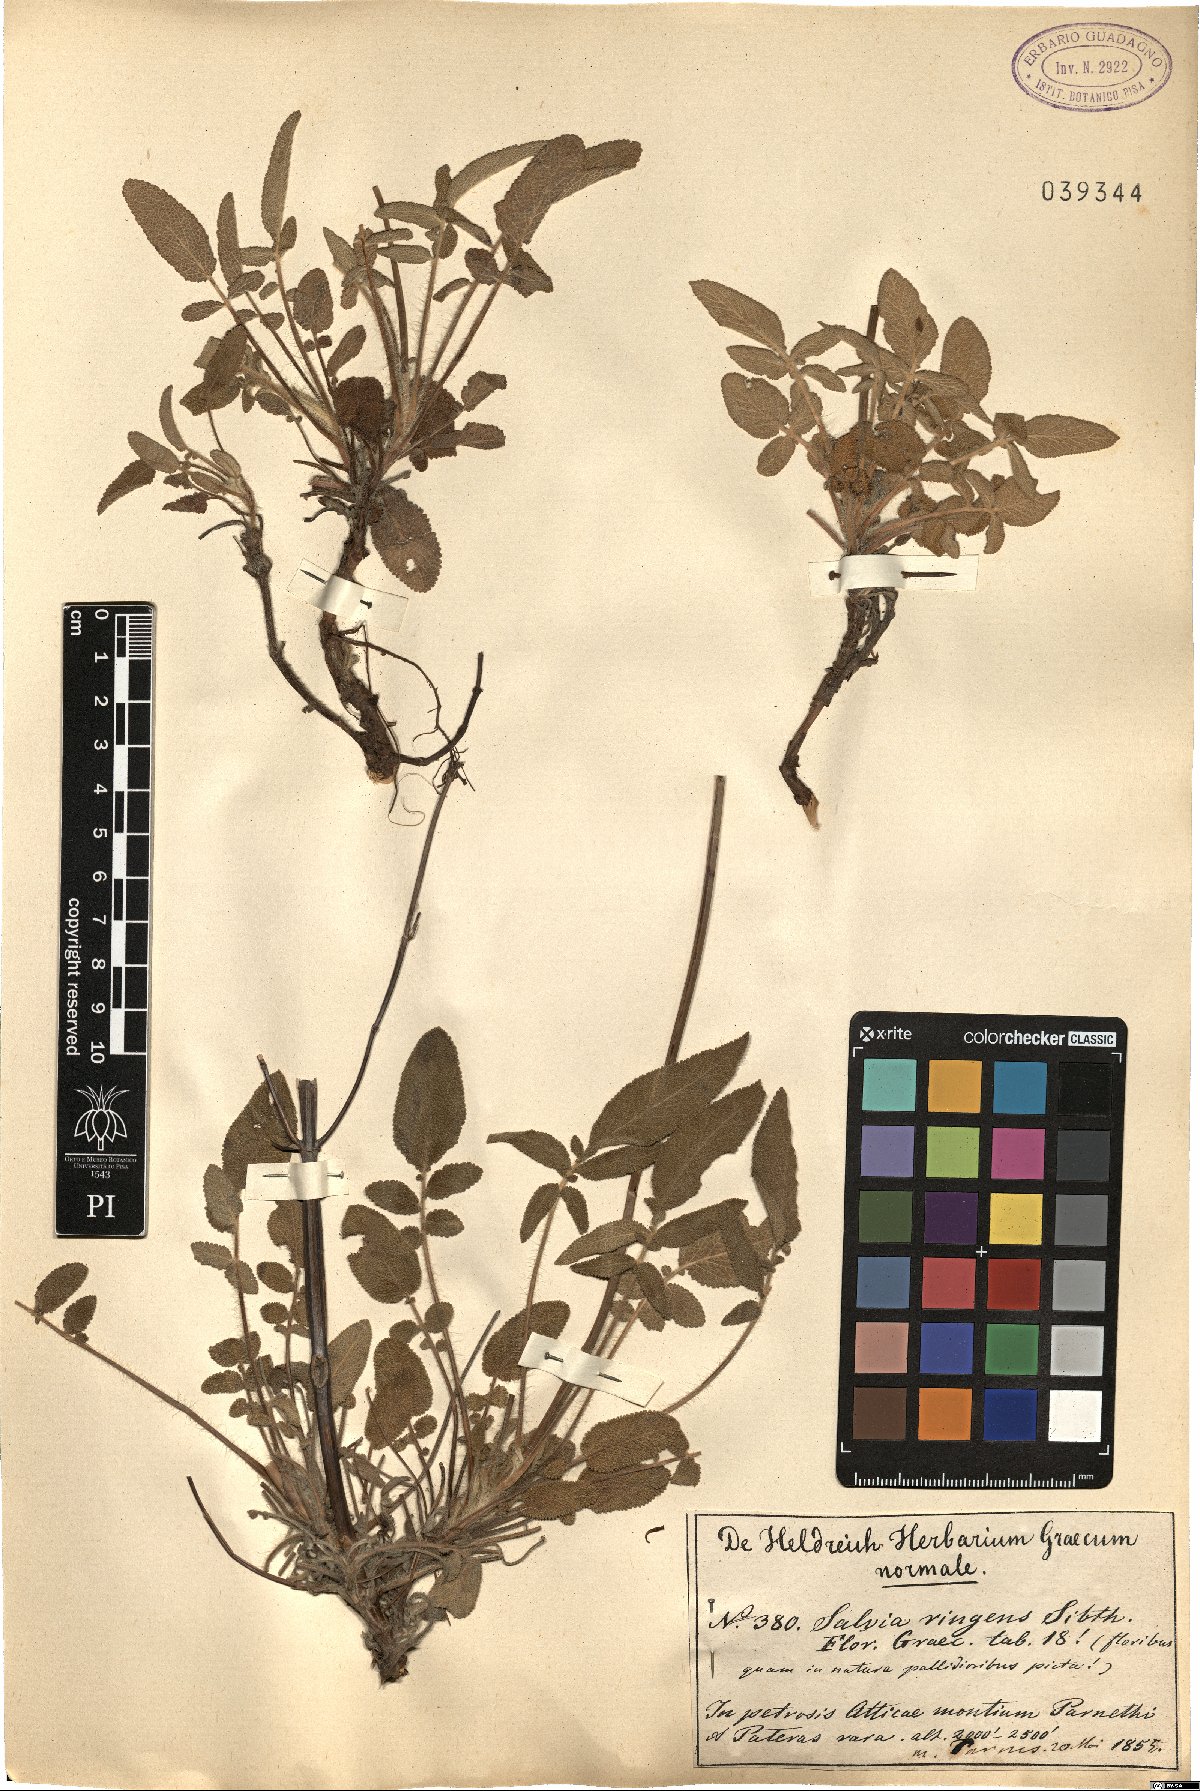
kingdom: Plantae
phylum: Tracheophyta
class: Magnoliopsida
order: Lamiales
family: Lamiaceae
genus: Salvia
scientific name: Salvia ringens
